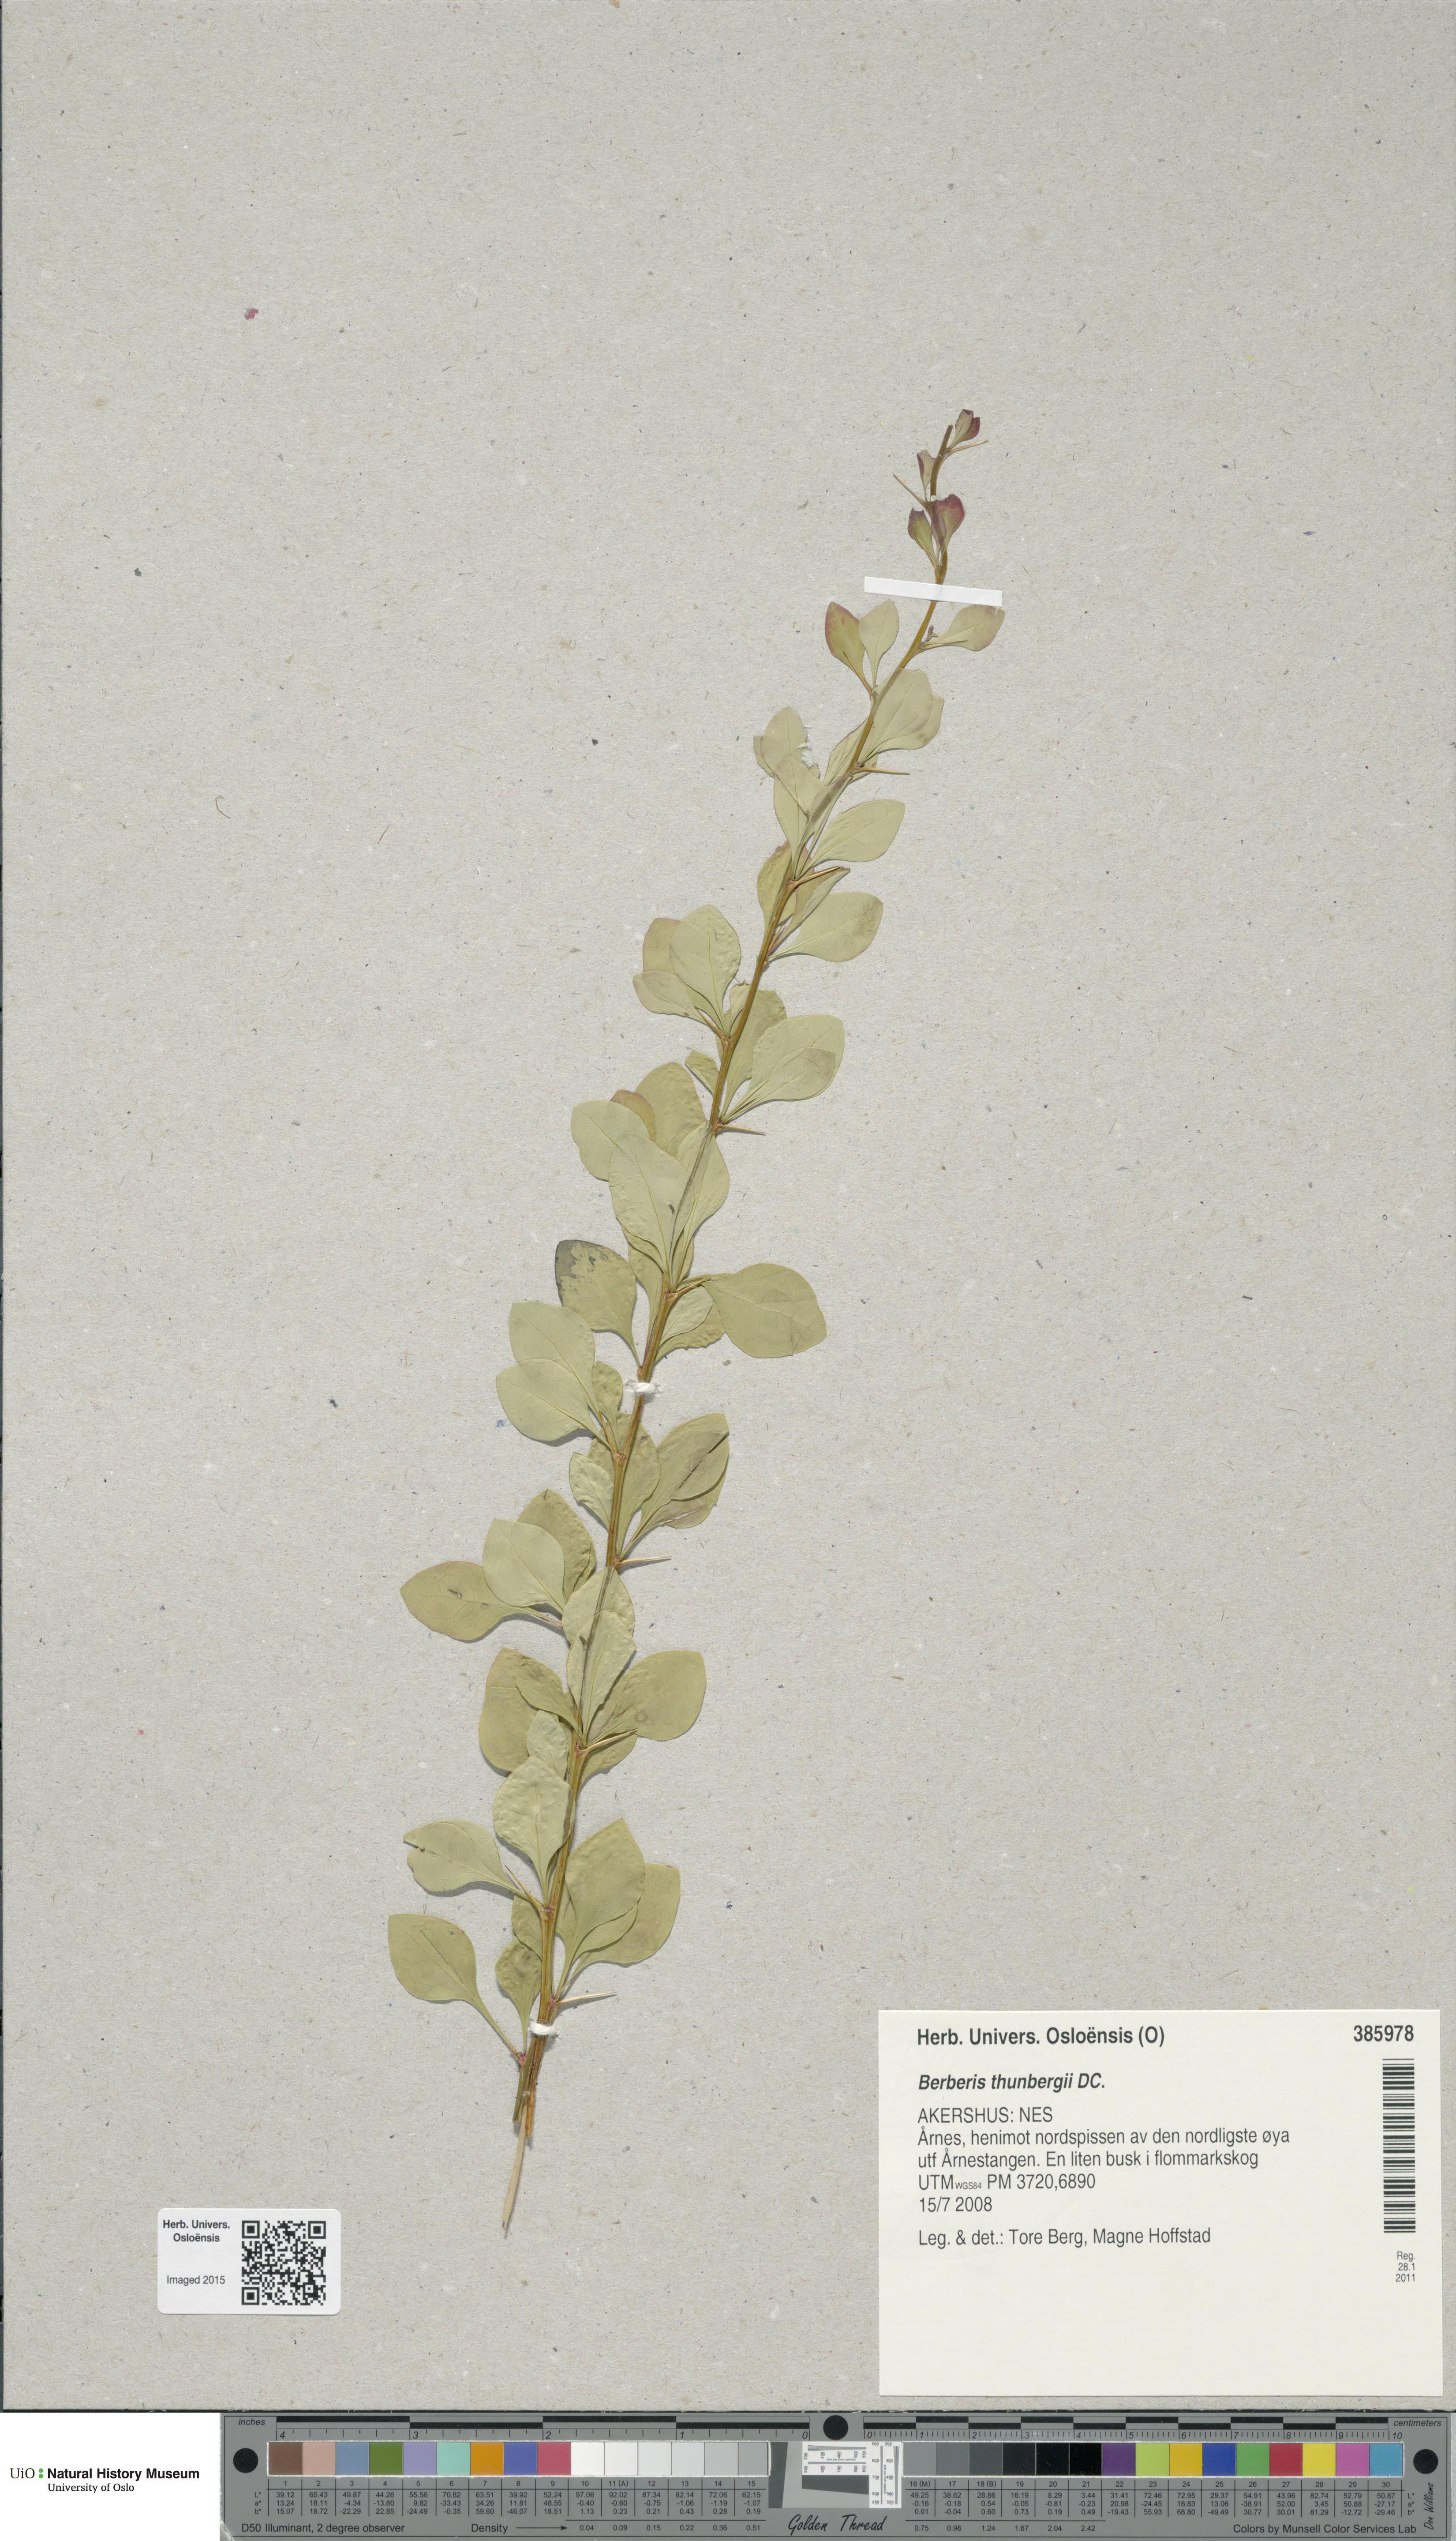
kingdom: Plantae
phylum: Tracheophyta
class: Magnoliopsida
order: Ranunculales
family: Berberidaceae
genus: Berberis
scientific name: Berberis thunbergii
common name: Japanese barberry
